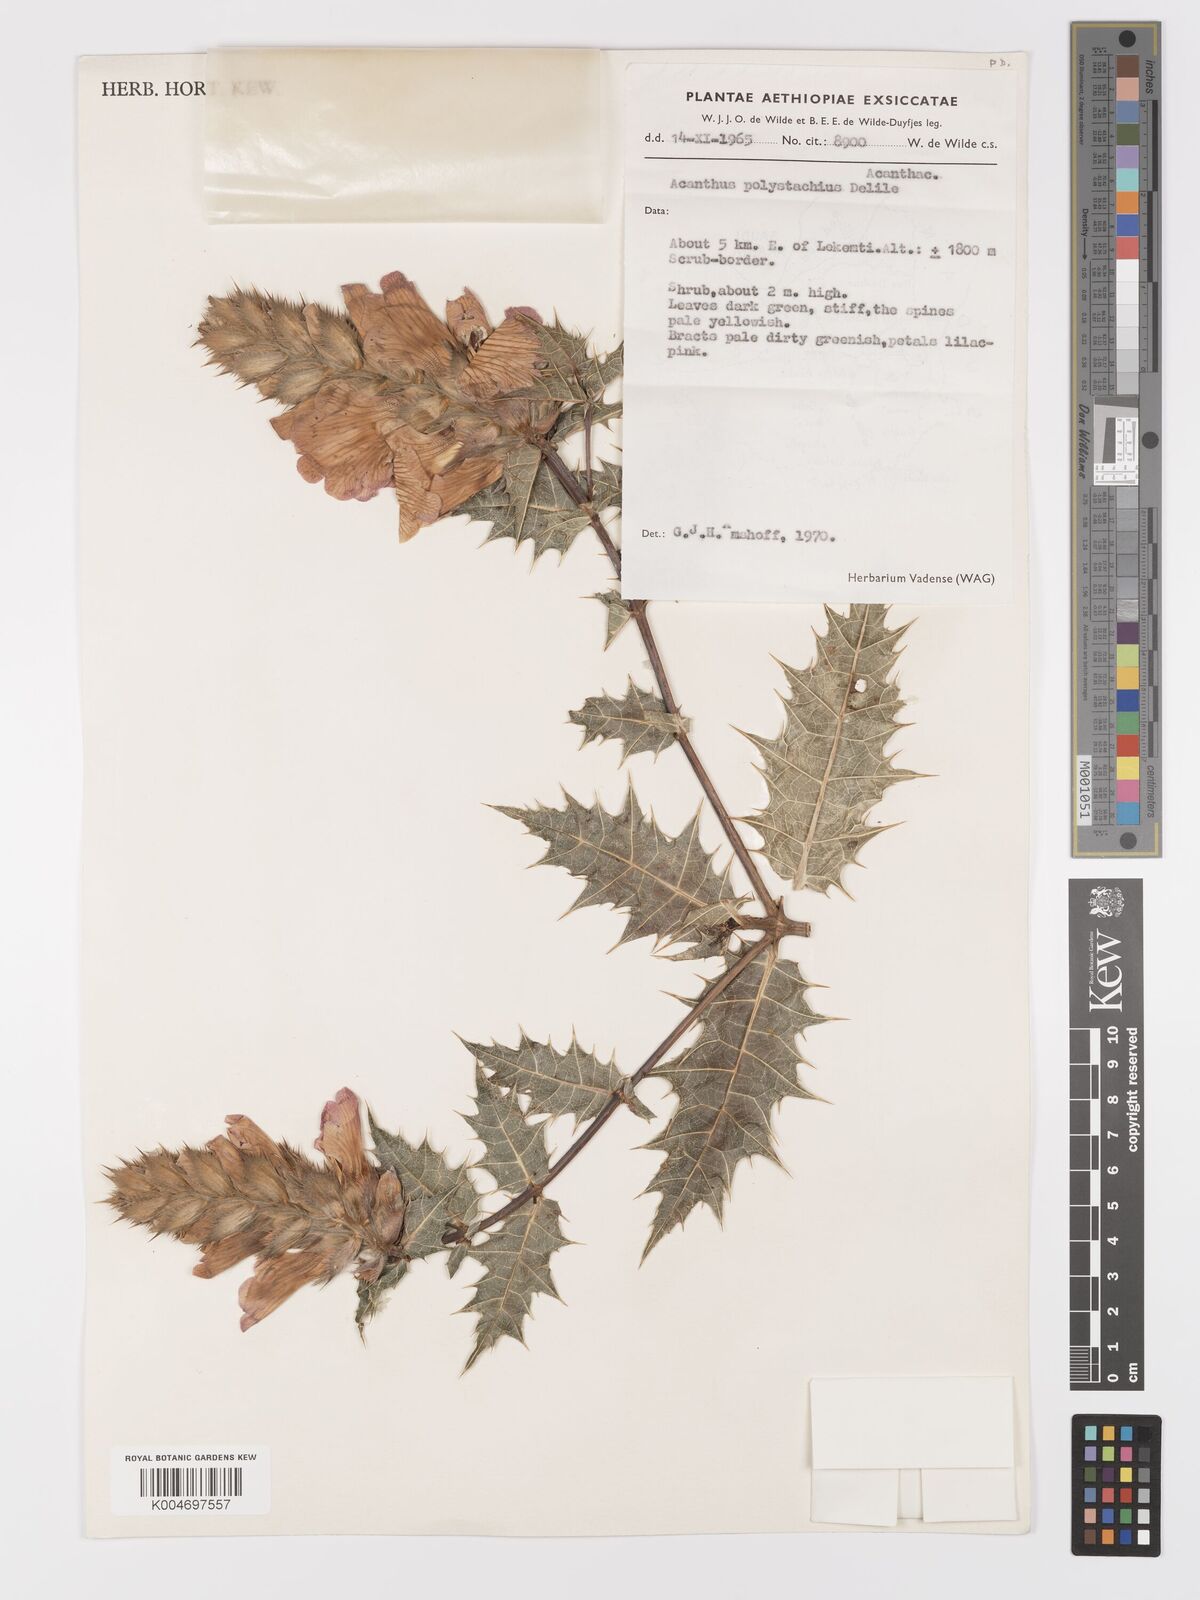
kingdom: Plantae
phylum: Tracheophyta
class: Magnoliopsida
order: Lamiales
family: Acanthaceae
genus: Acanthus
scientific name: Acanthus polystachyus
